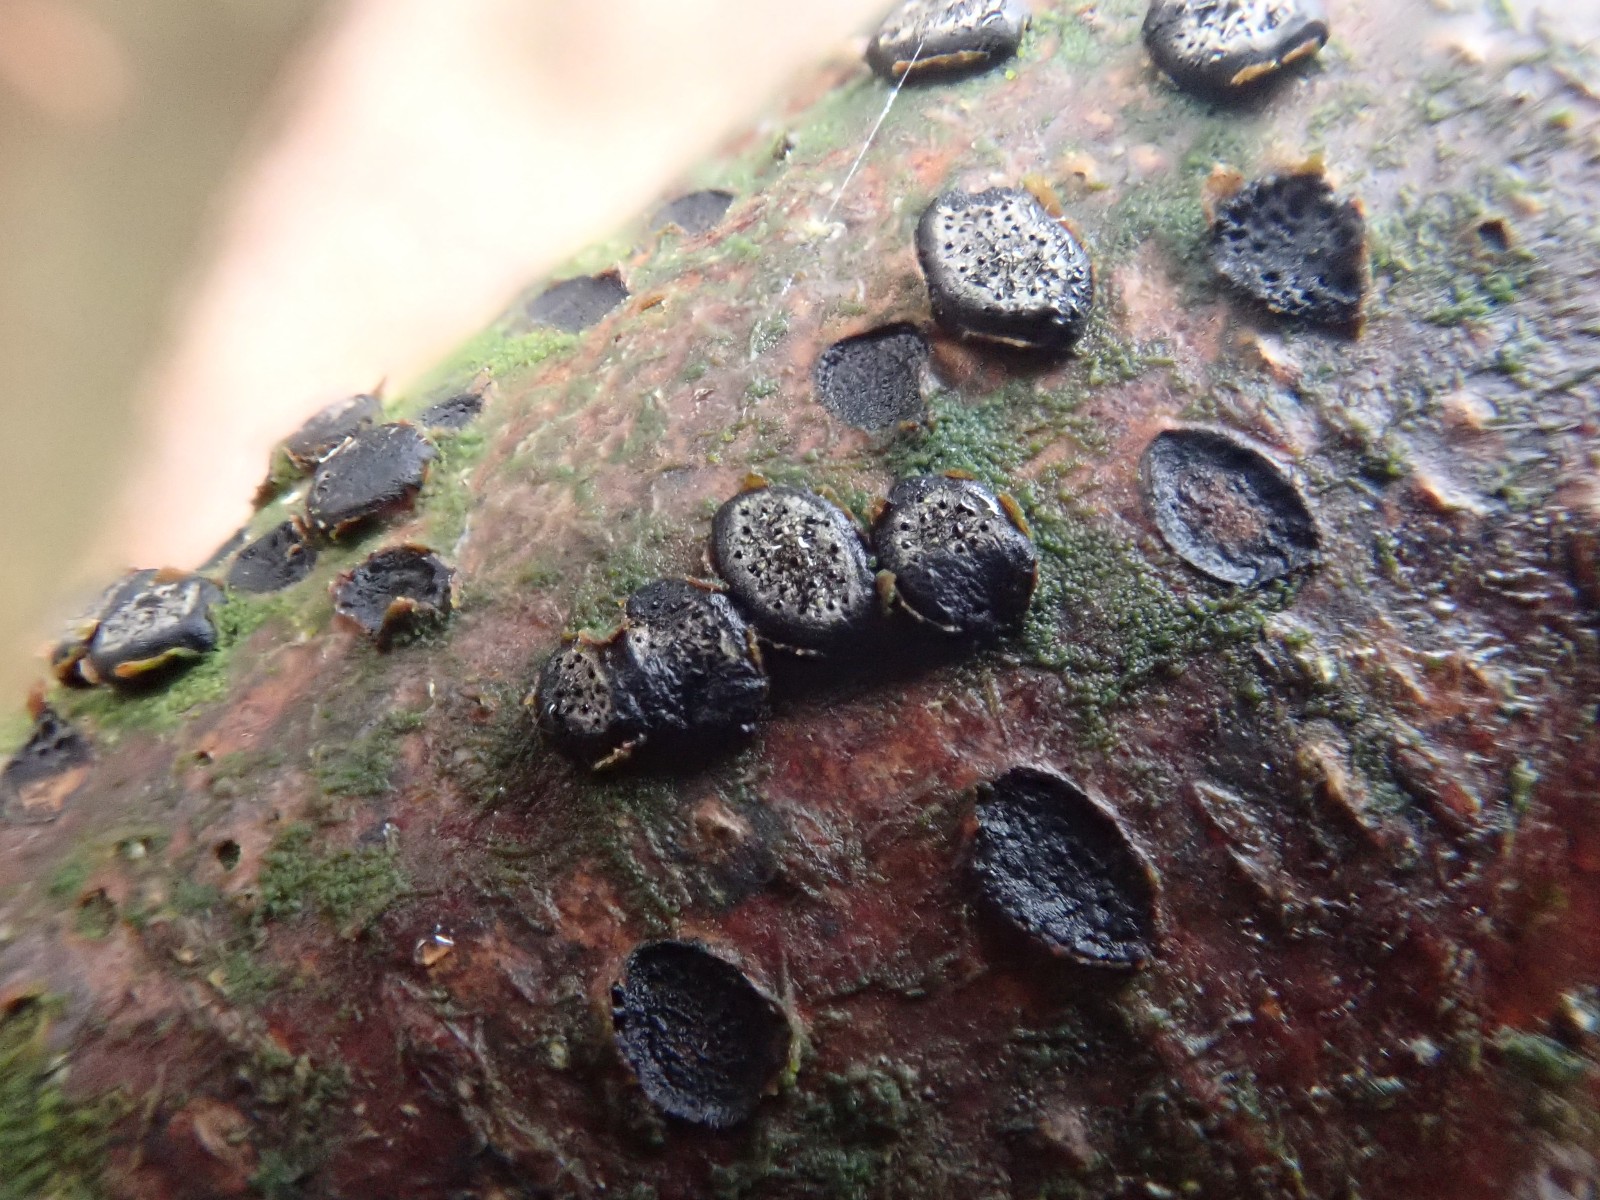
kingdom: Fungi
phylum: Ascomycota
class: Sordariomycetes
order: Xylariales
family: Diatrypaceae
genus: Diatrype
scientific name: Diatrype disciformis
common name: kant-kulskorpe
